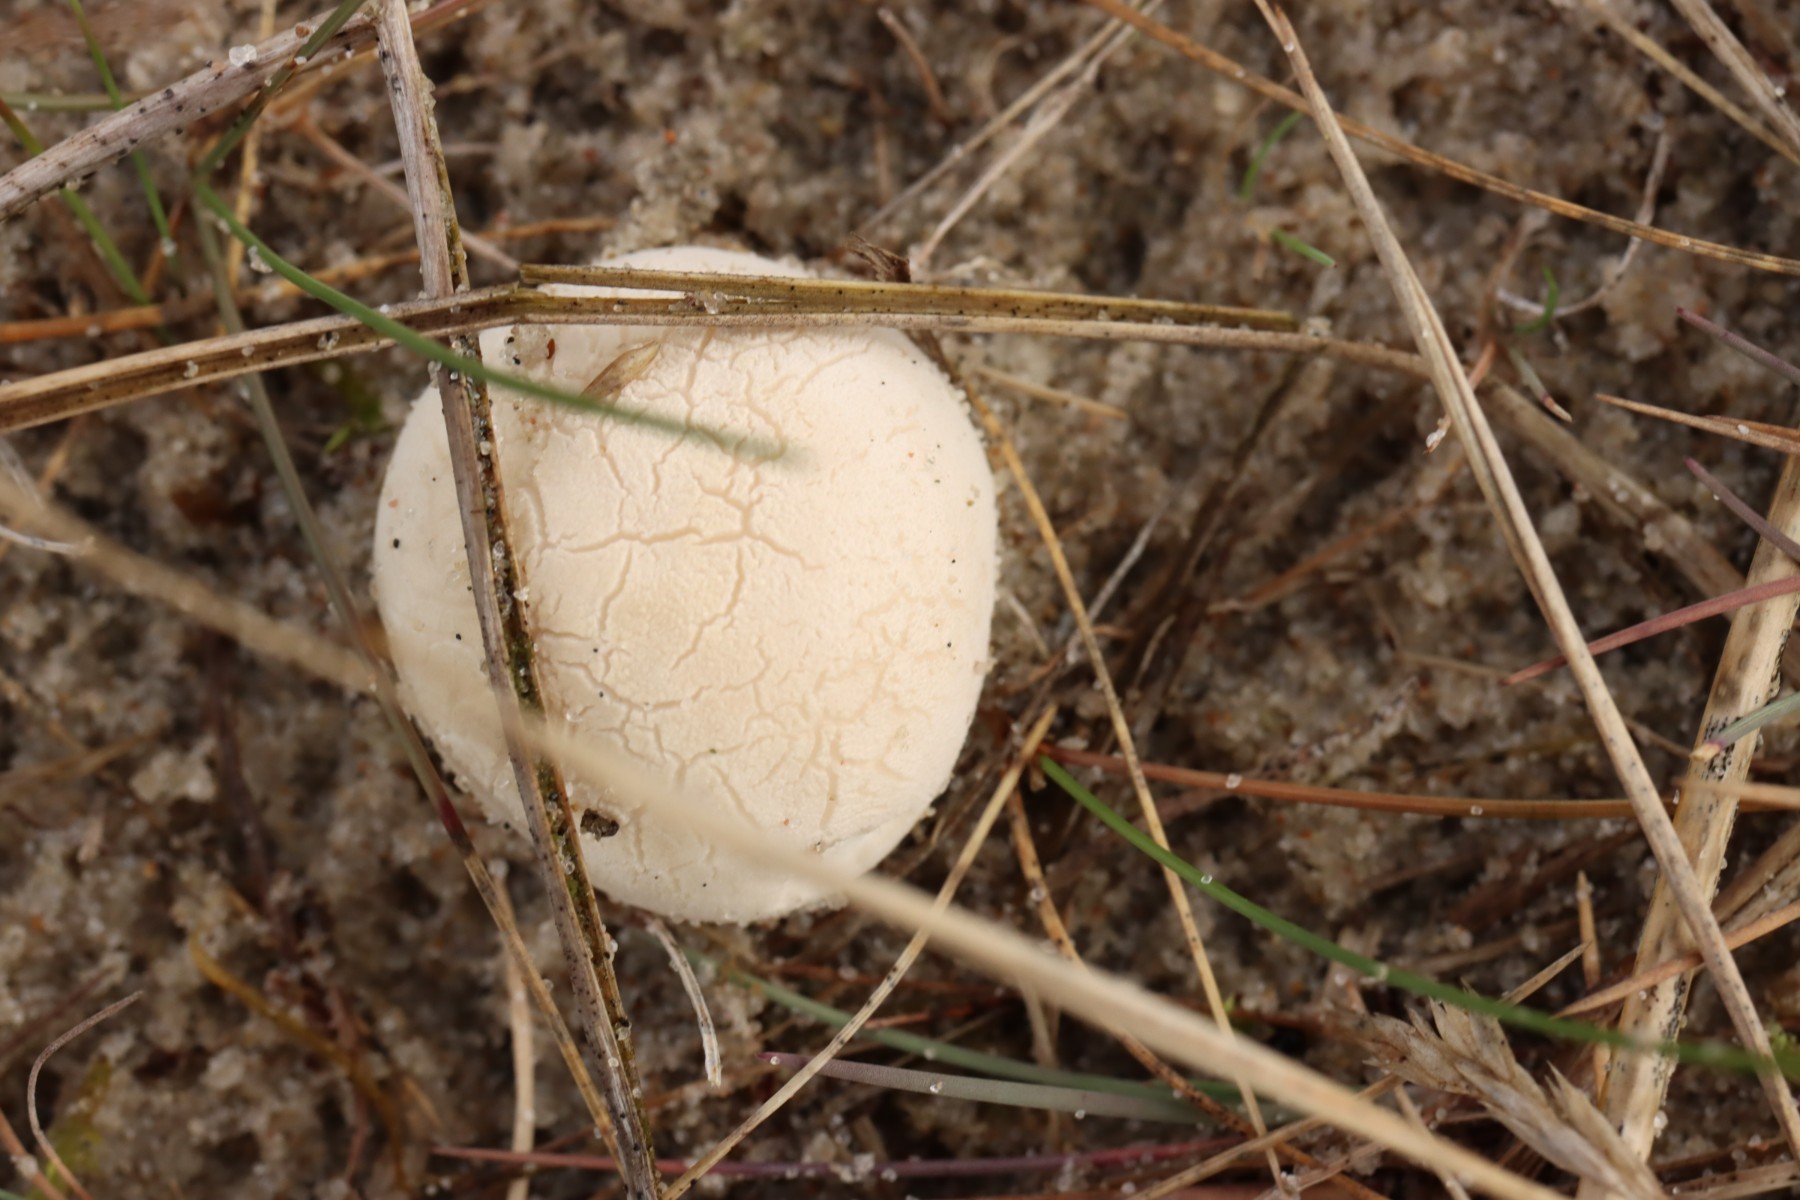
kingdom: Fungi
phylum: Basidiomycota
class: Agaricomycetes
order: Agaricales
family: Lycoperdaceae
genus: Bovista
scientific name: Bovista
